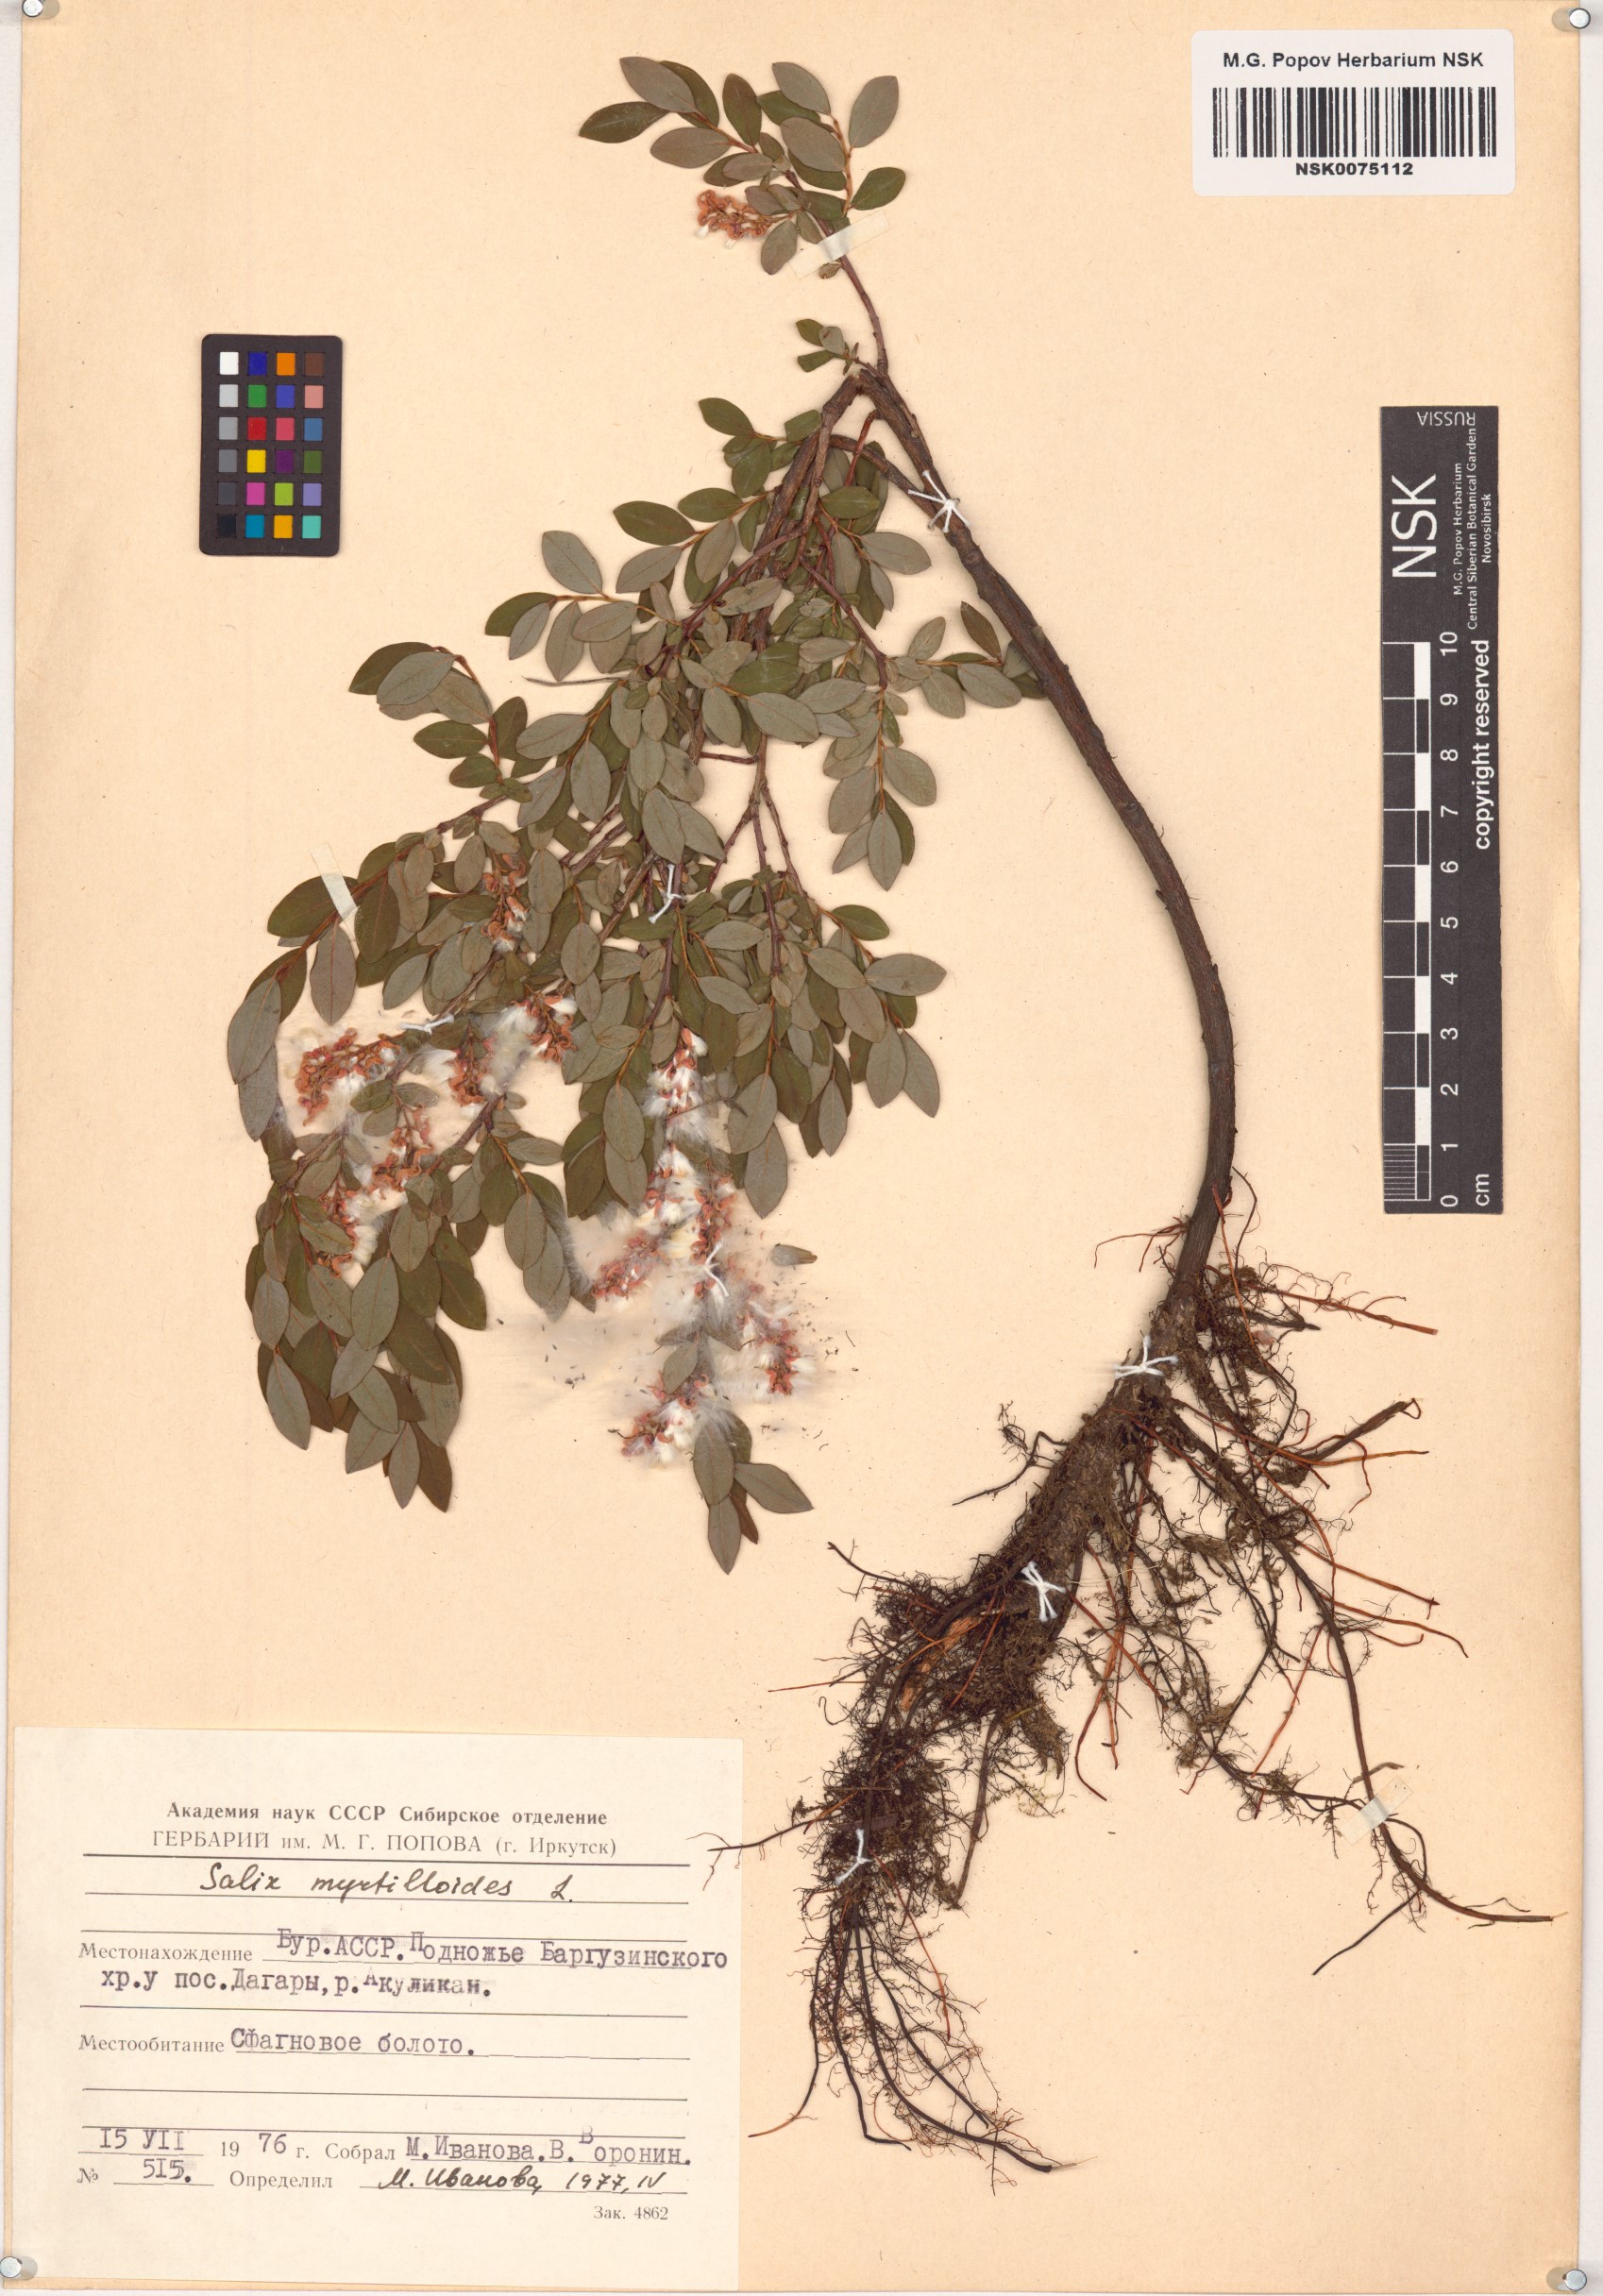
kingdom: Plantae
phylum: Tracheophyta
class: Magnoliopsida
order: Malpighiales
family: Salicaceae
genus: Salix
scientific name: Salix myrtilloides
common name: Myrtle-leaved willow
